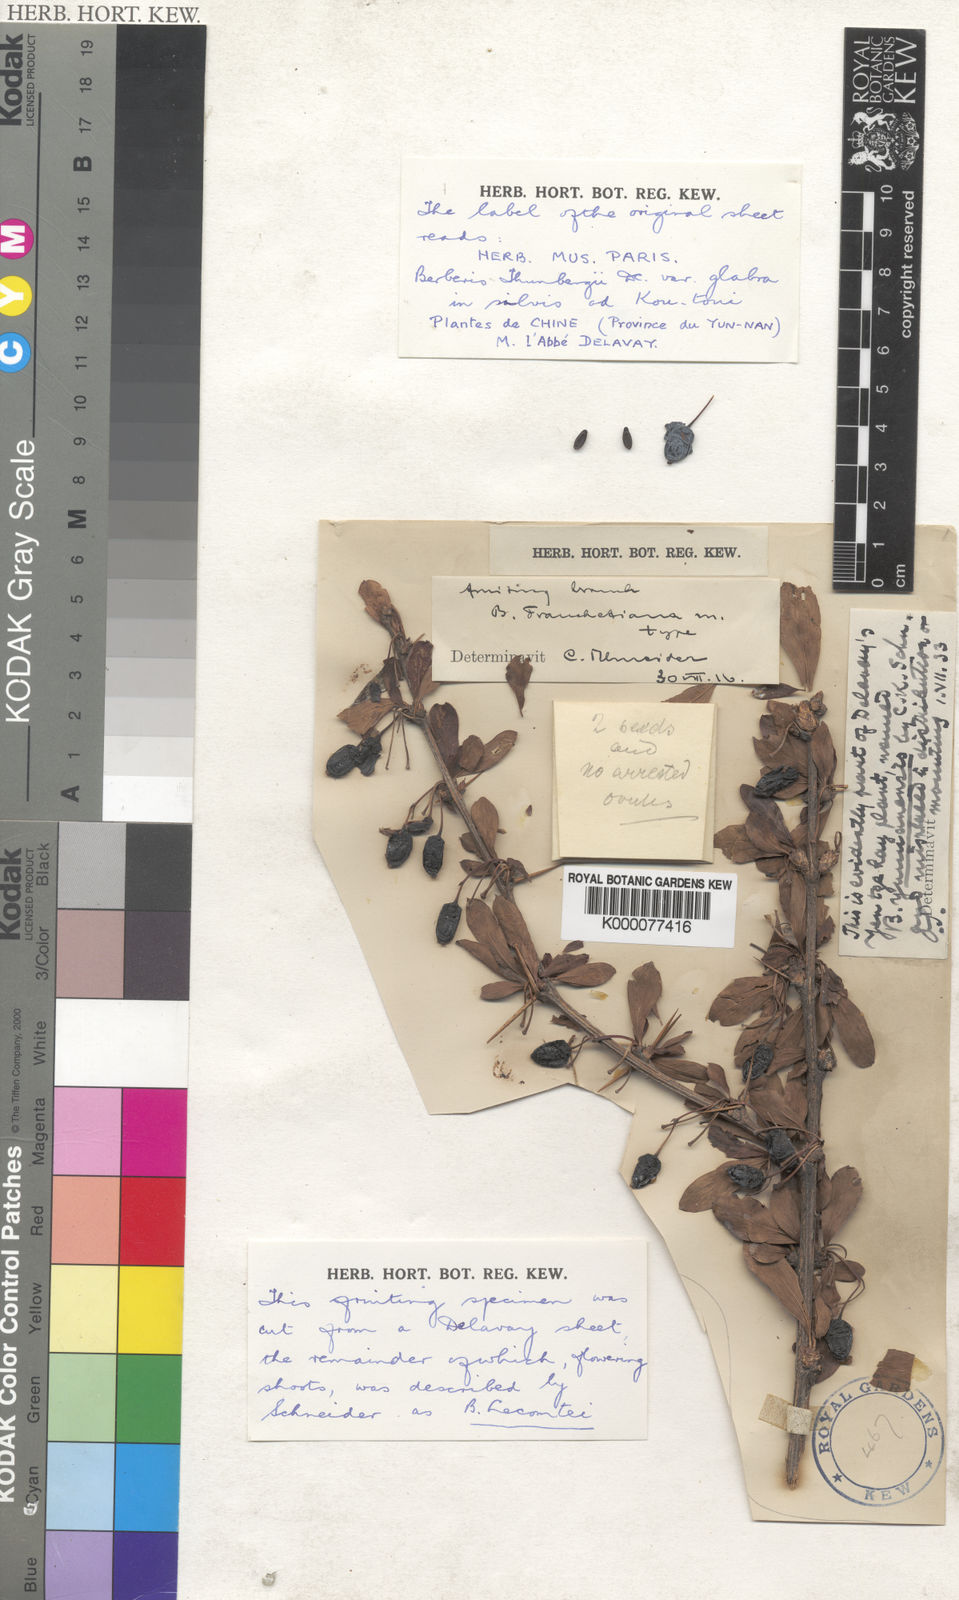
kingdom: Plantae
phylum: Tracheophyta
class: Magnoliopsida
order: Ranunculales
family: Berberidaceae
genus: Berberis
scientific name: Berberis yunnanensis
